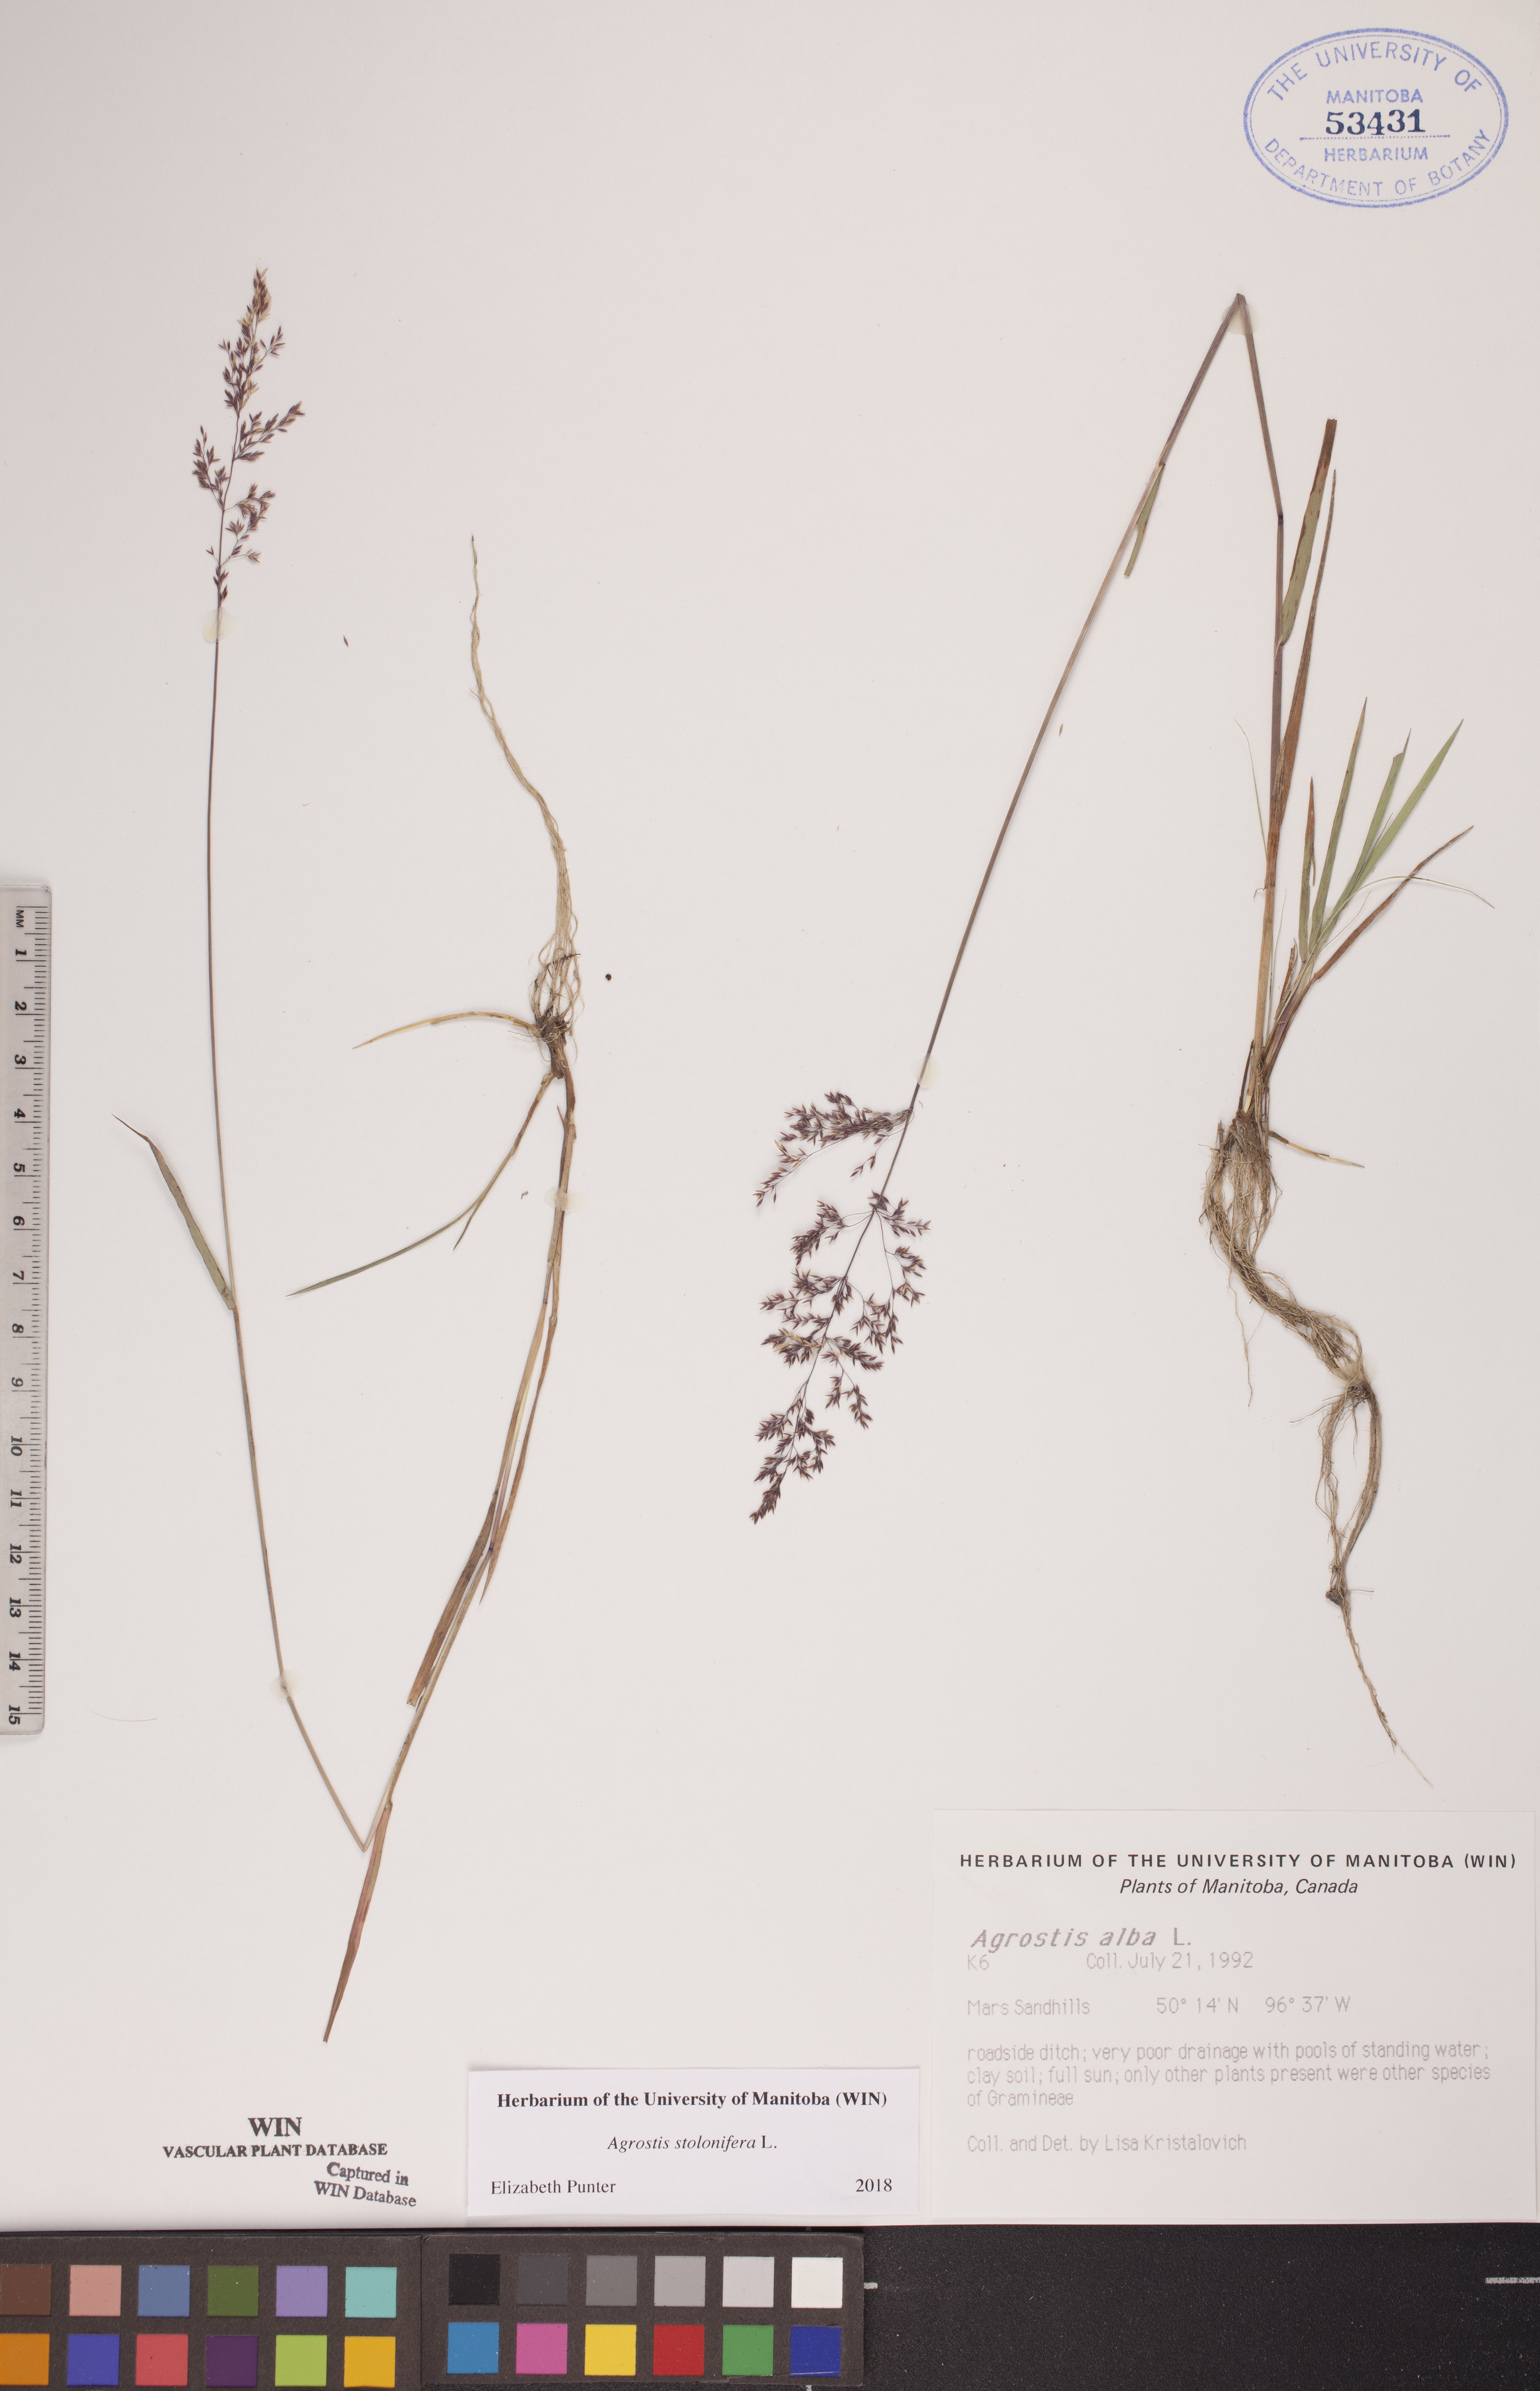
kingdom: Plantae
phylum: Tracheophyta
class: Liliopsida
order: Poales
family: Poaceae
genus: Agrostis
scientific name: Agrostis stolonifera
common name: Creeping bentgrass
